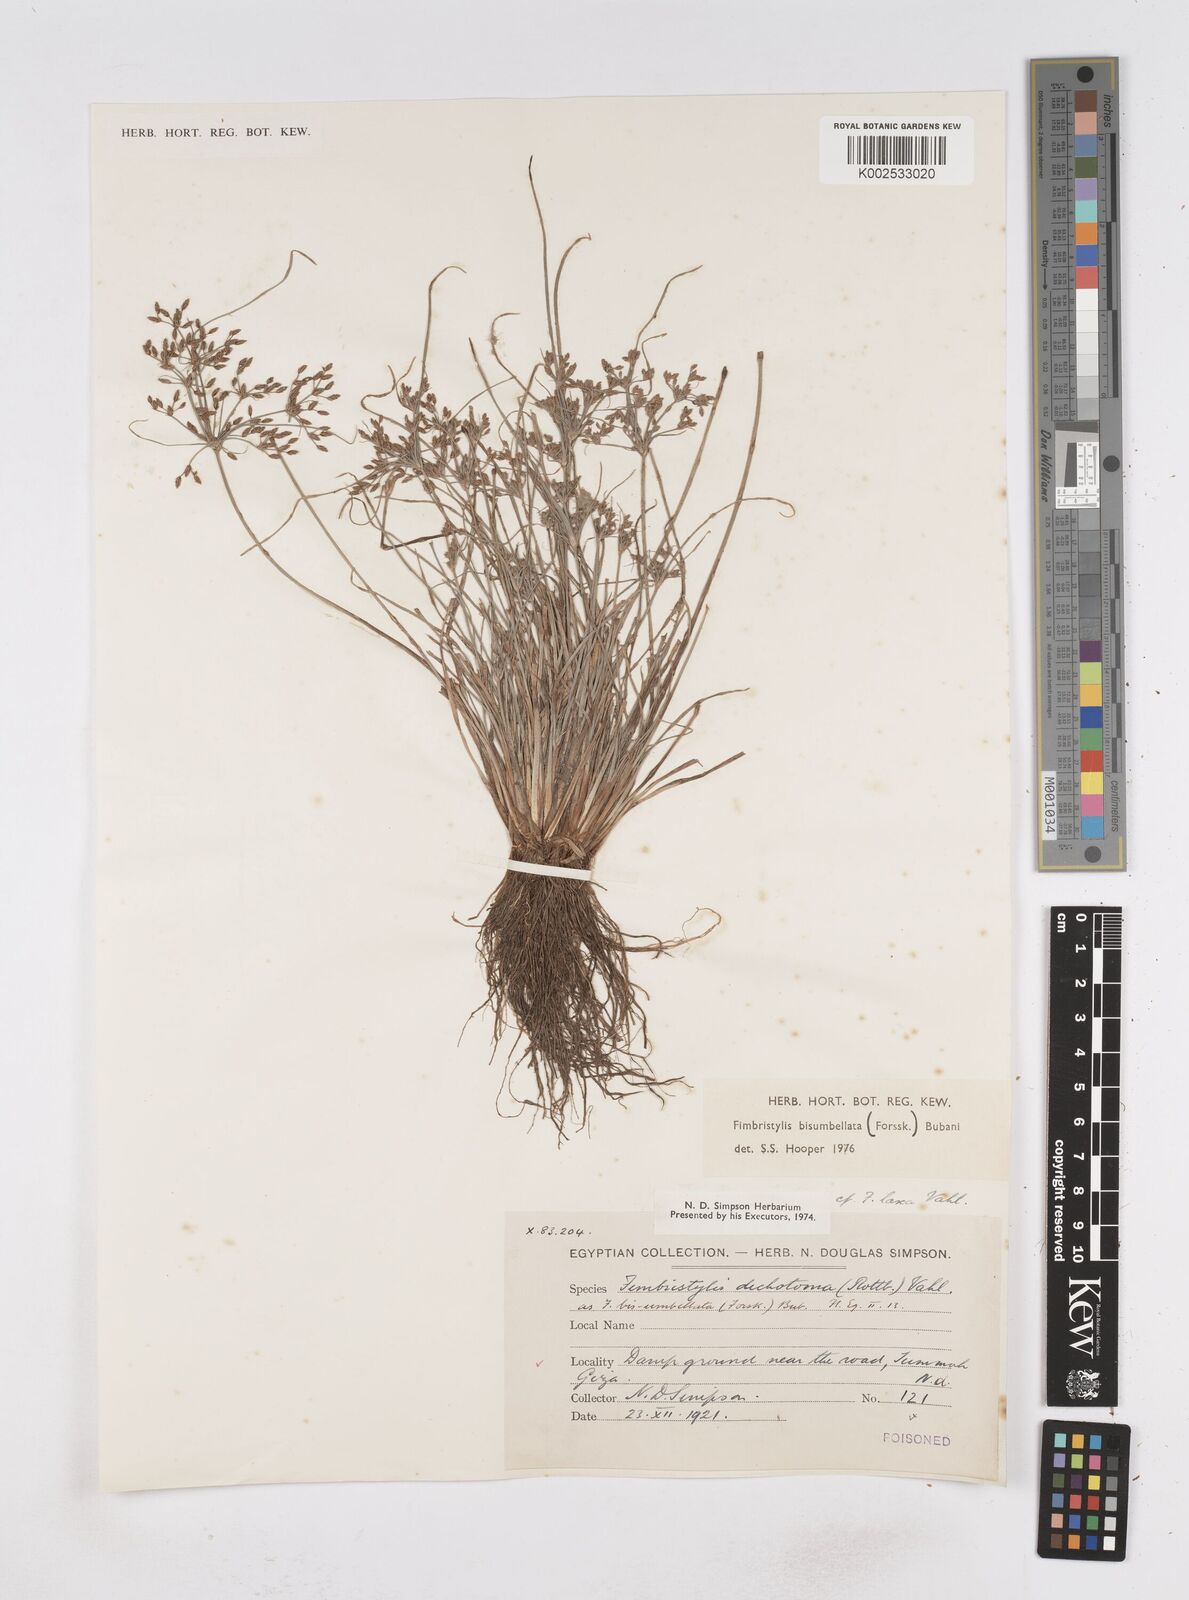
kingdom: Plantae
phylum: Tracheophyta
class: Liliopsida
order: Poales
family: Cyperaceae
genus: Fimbristylis
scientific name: Fimbristylis bisumbellata
